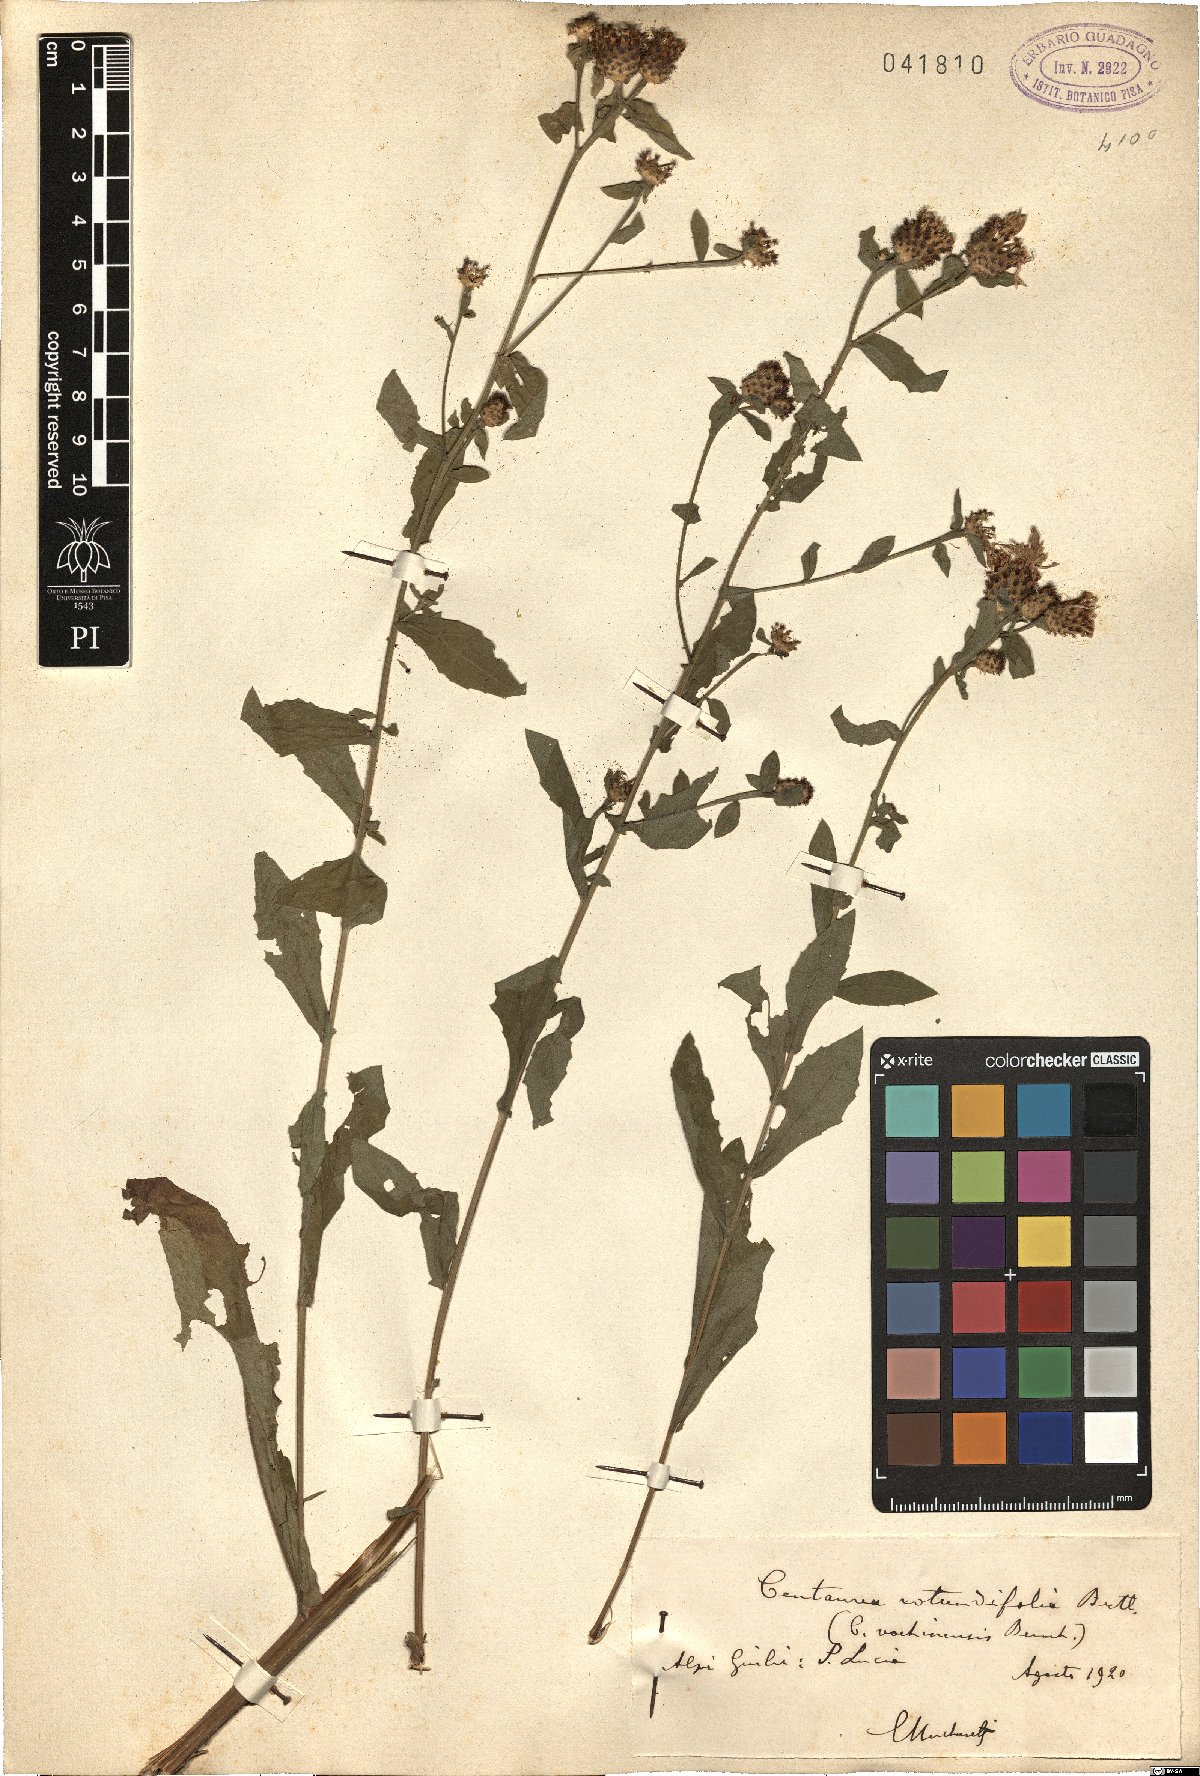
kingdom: Plantae
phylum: Tracheophyta
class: Magnoliopsida
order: Asterales
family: Asteraceae
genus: Centaurea
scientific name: Centaurea carniolica
